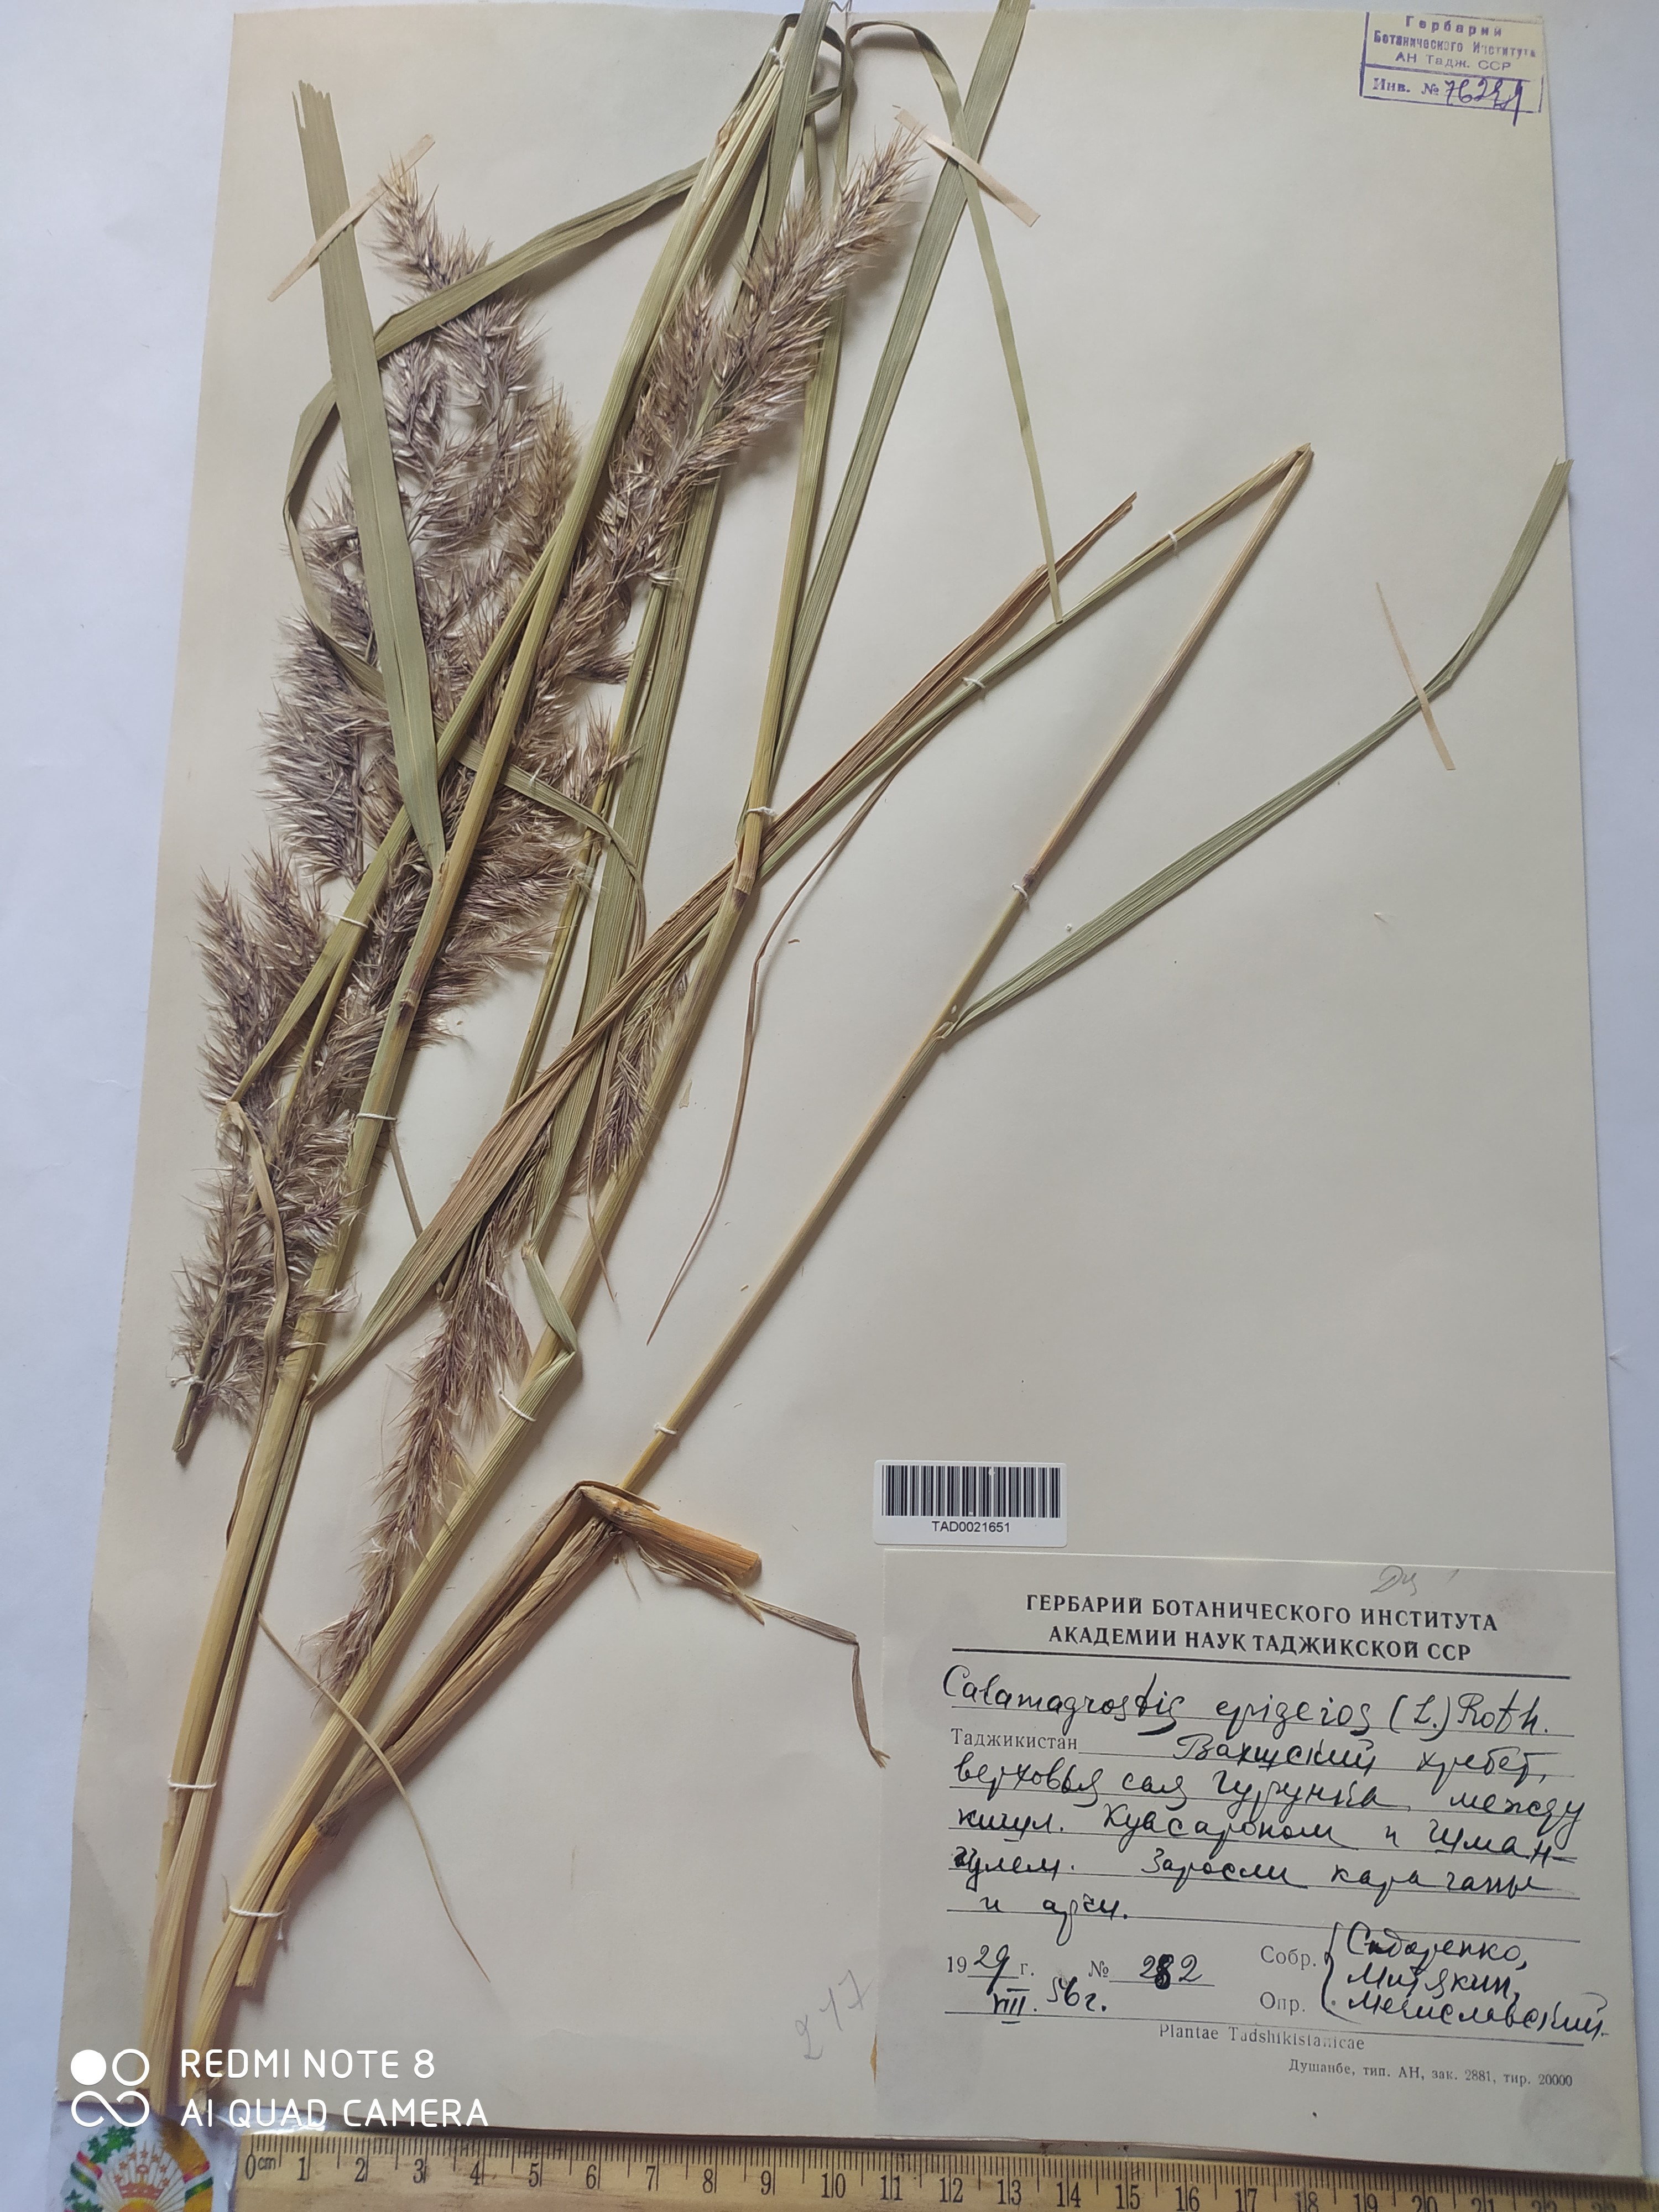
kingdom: Plantae
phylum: Tracheophyta
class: Liliopsida
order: Poales
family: Poaceae
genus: Calamagrostis
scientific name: Calamagrostis epigejos
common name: Wood small-reed
